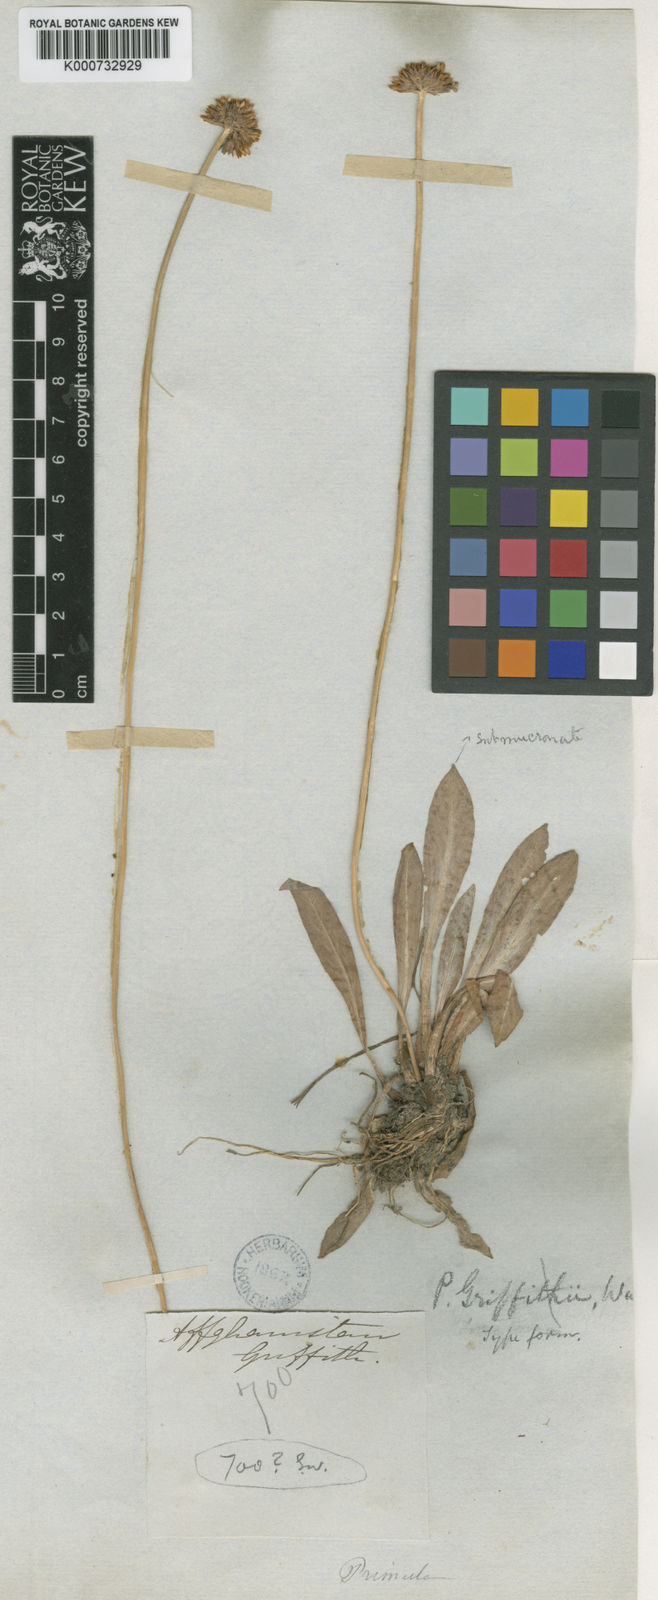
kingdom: Plantae
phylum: Tracheophyta
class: Magnoliopsida
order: Ericales
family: Primulaceae
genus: Primula
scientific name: Primula capitellata
